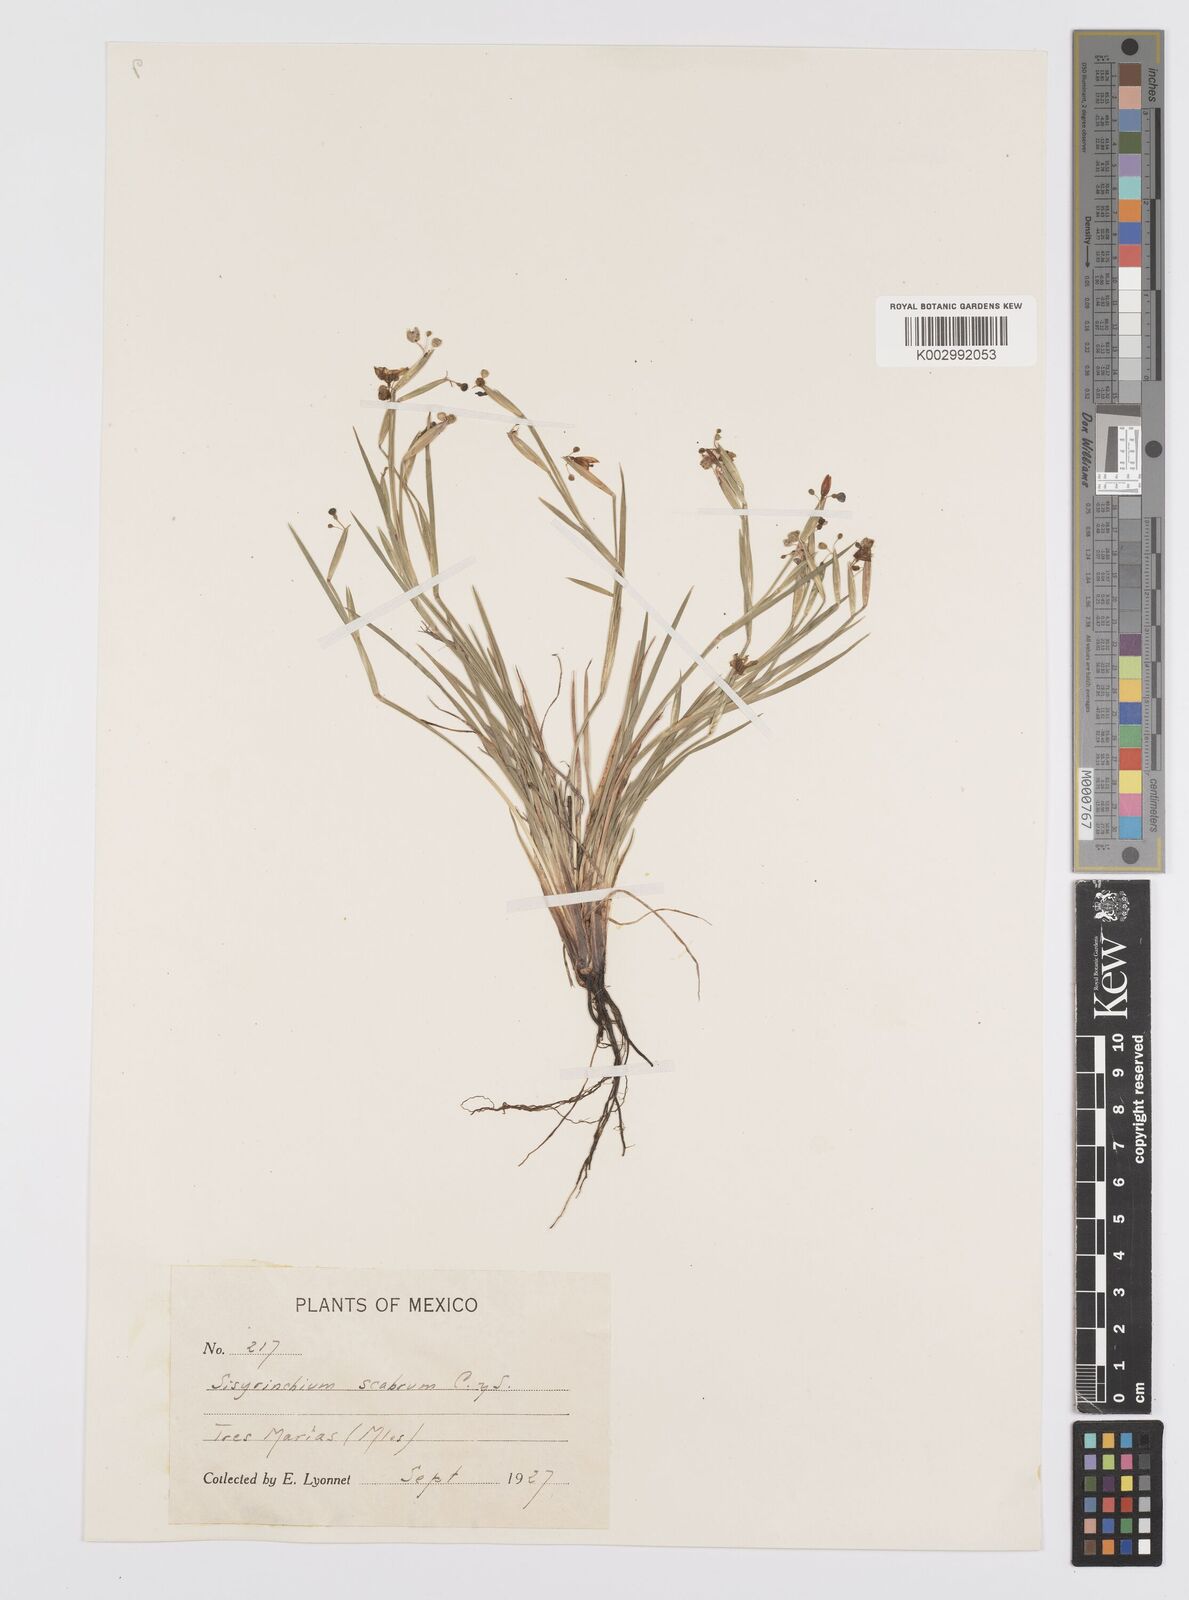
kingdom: Plantae
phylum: Tracheophyta
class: Liliopsida
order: Asparagales
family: Iridaceae
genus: Sisyrinchium
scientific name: Sisyrinchium scabrum
